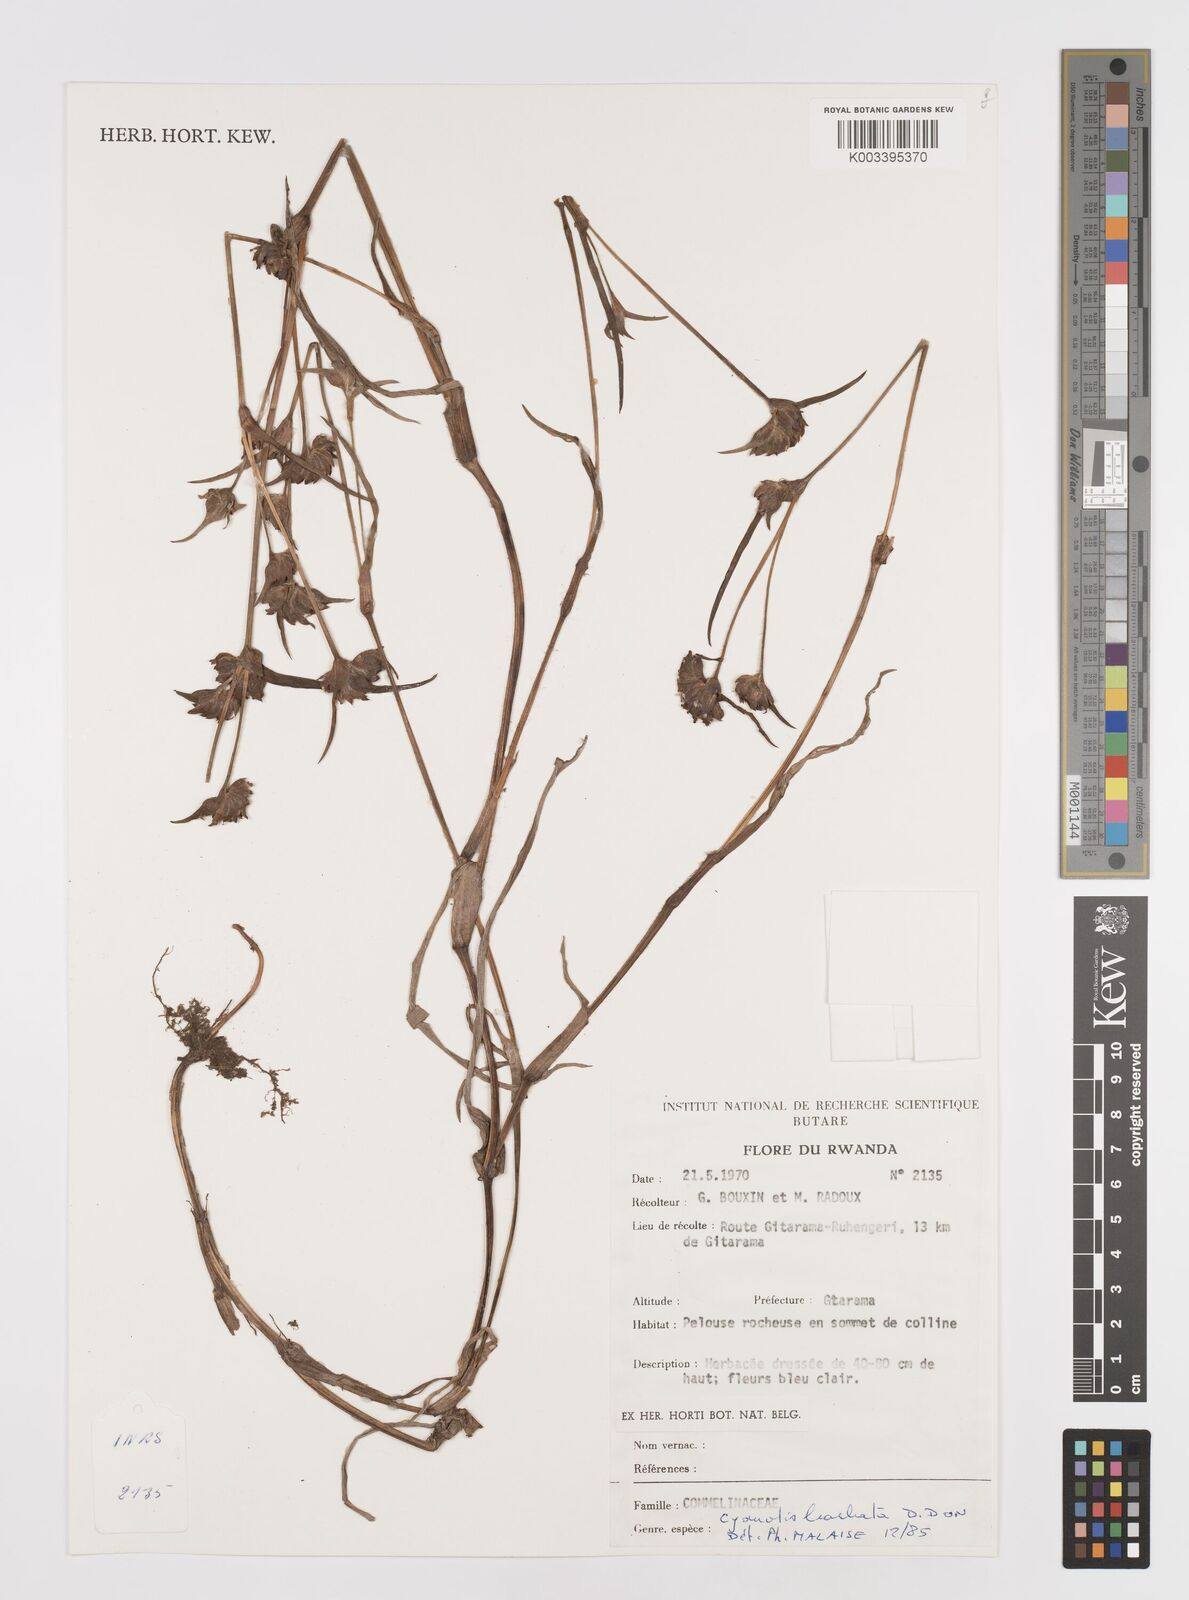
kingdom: Plantae
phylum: Tracheophyta
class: Liliopsida
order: Commelinales
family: Commelinaceae
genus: Cyanotis
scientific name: Cyanotis vaga
